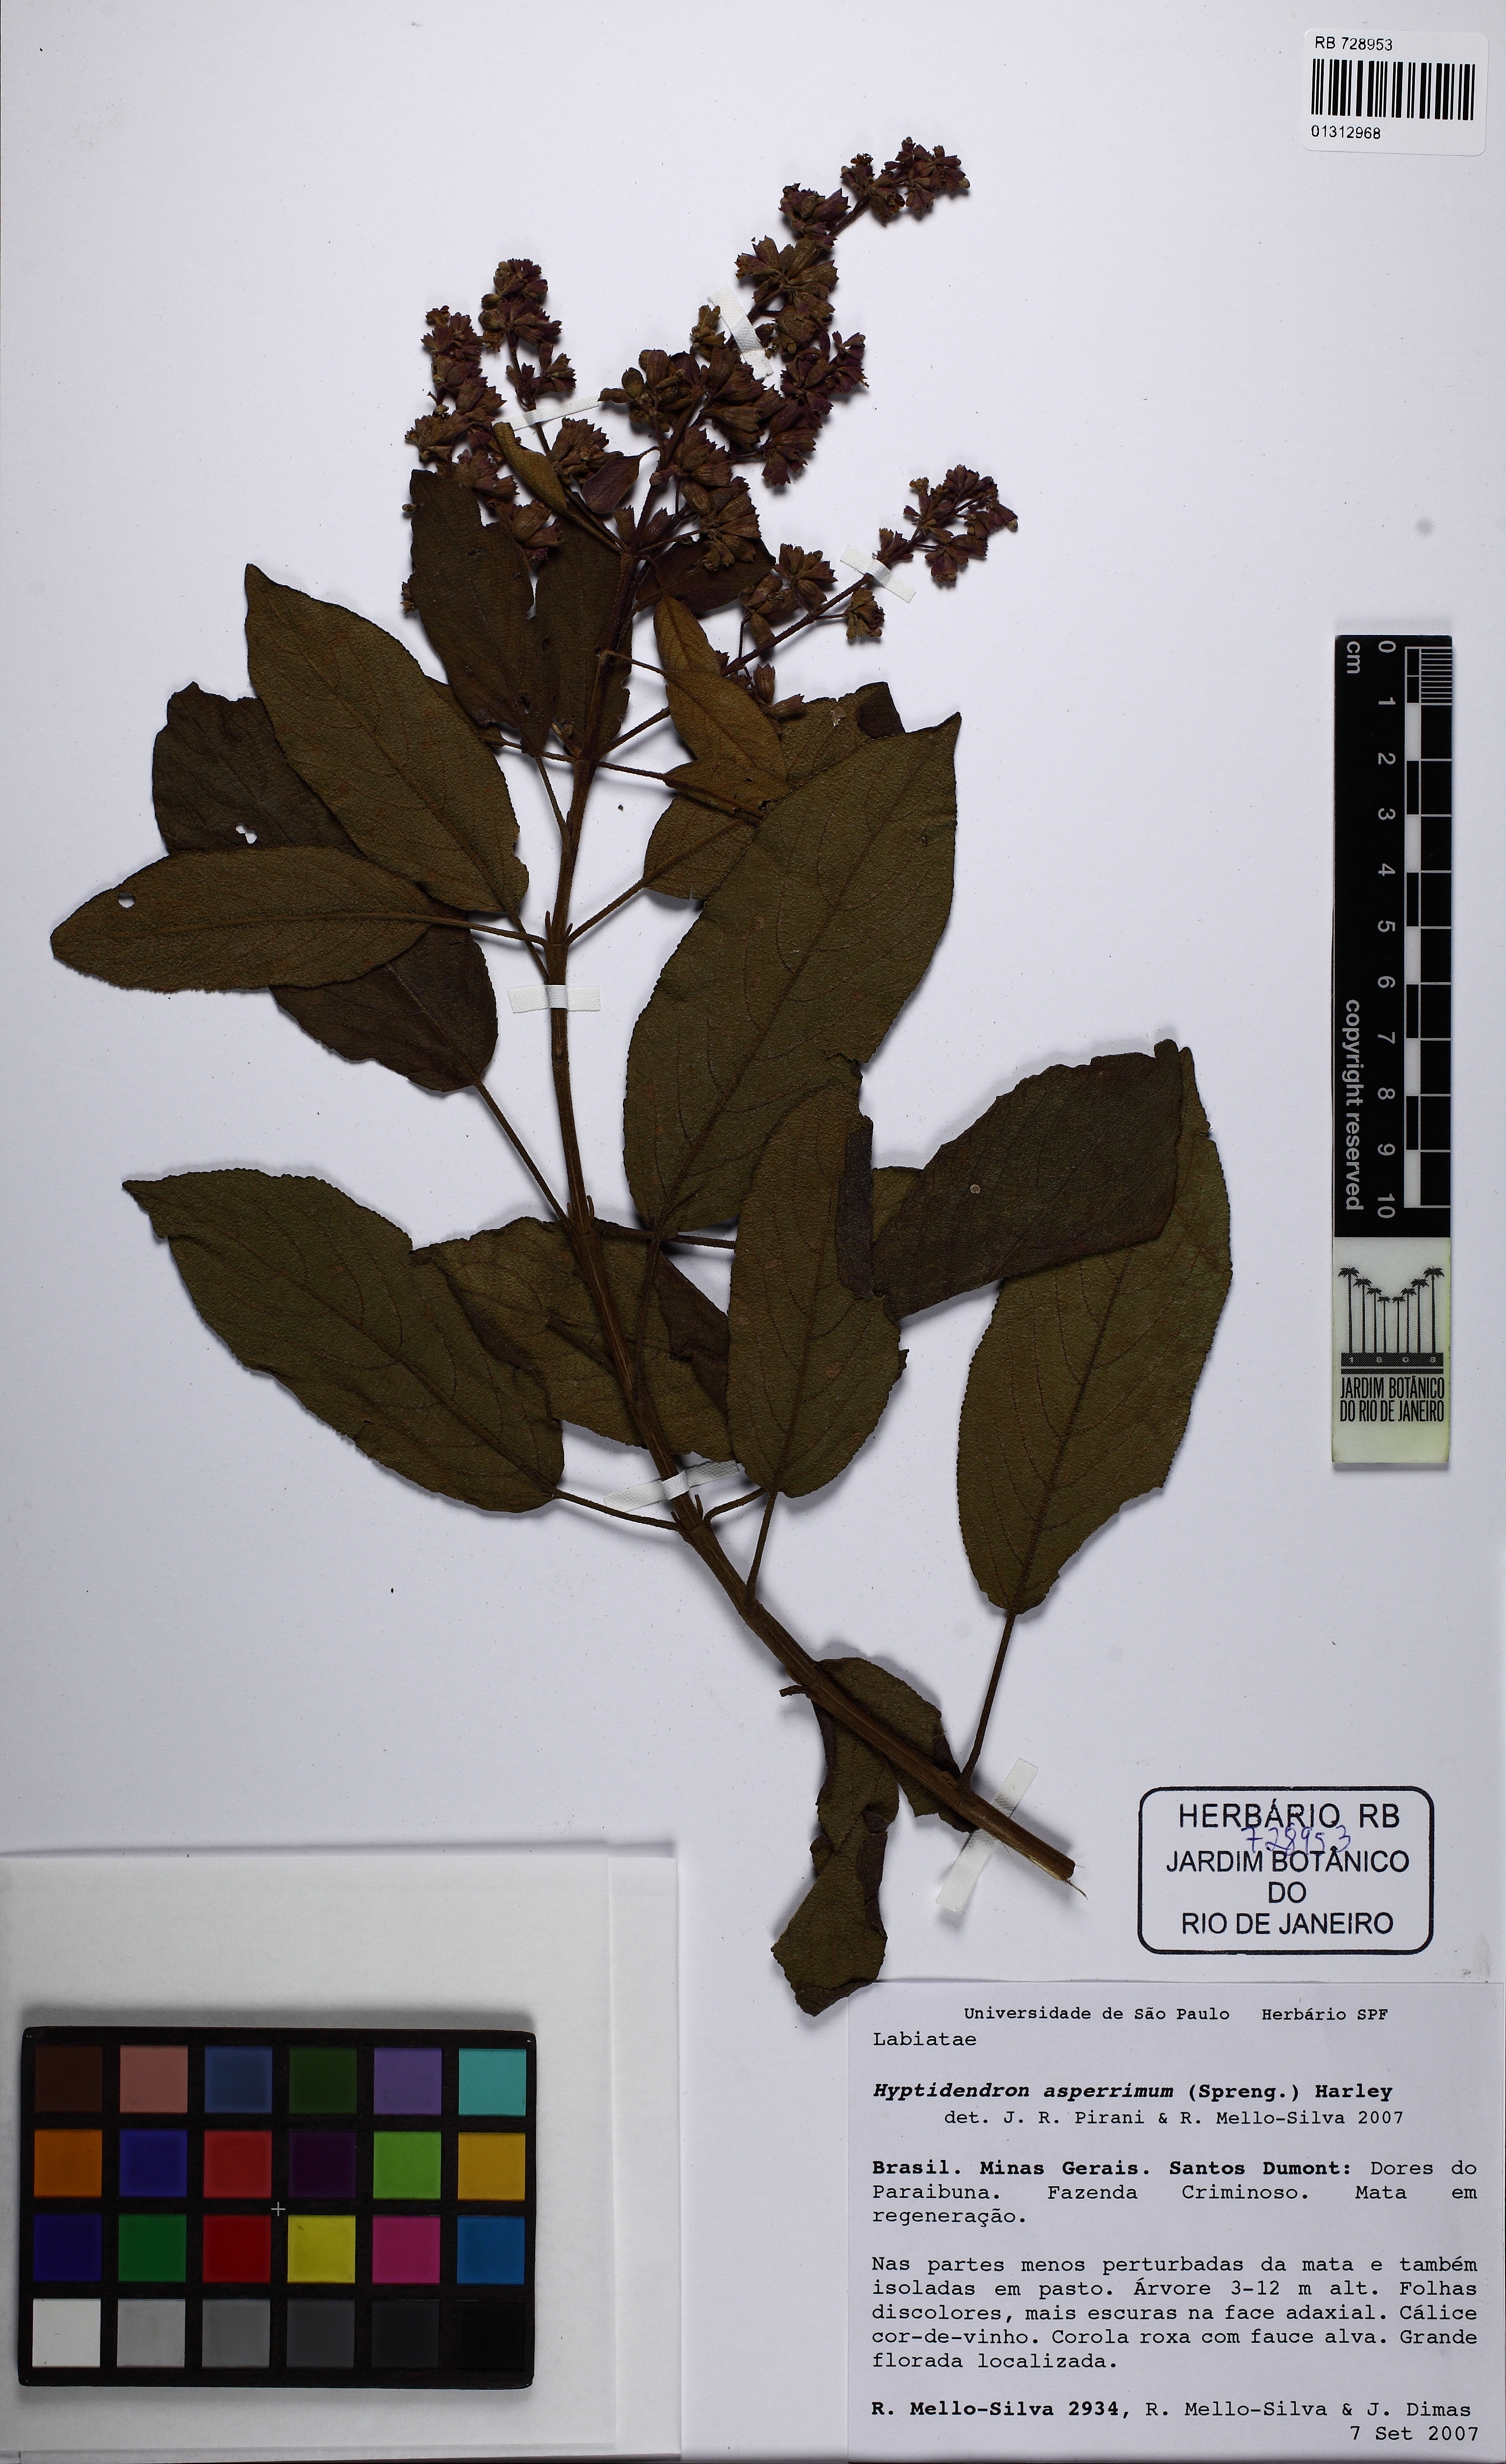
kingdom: Plantae
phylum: Tracheophyta
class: Magnoliopsida
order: Lamiales
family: Lamiaceae
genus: Hyptidendron
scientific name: Hyptidendron asperrimum
